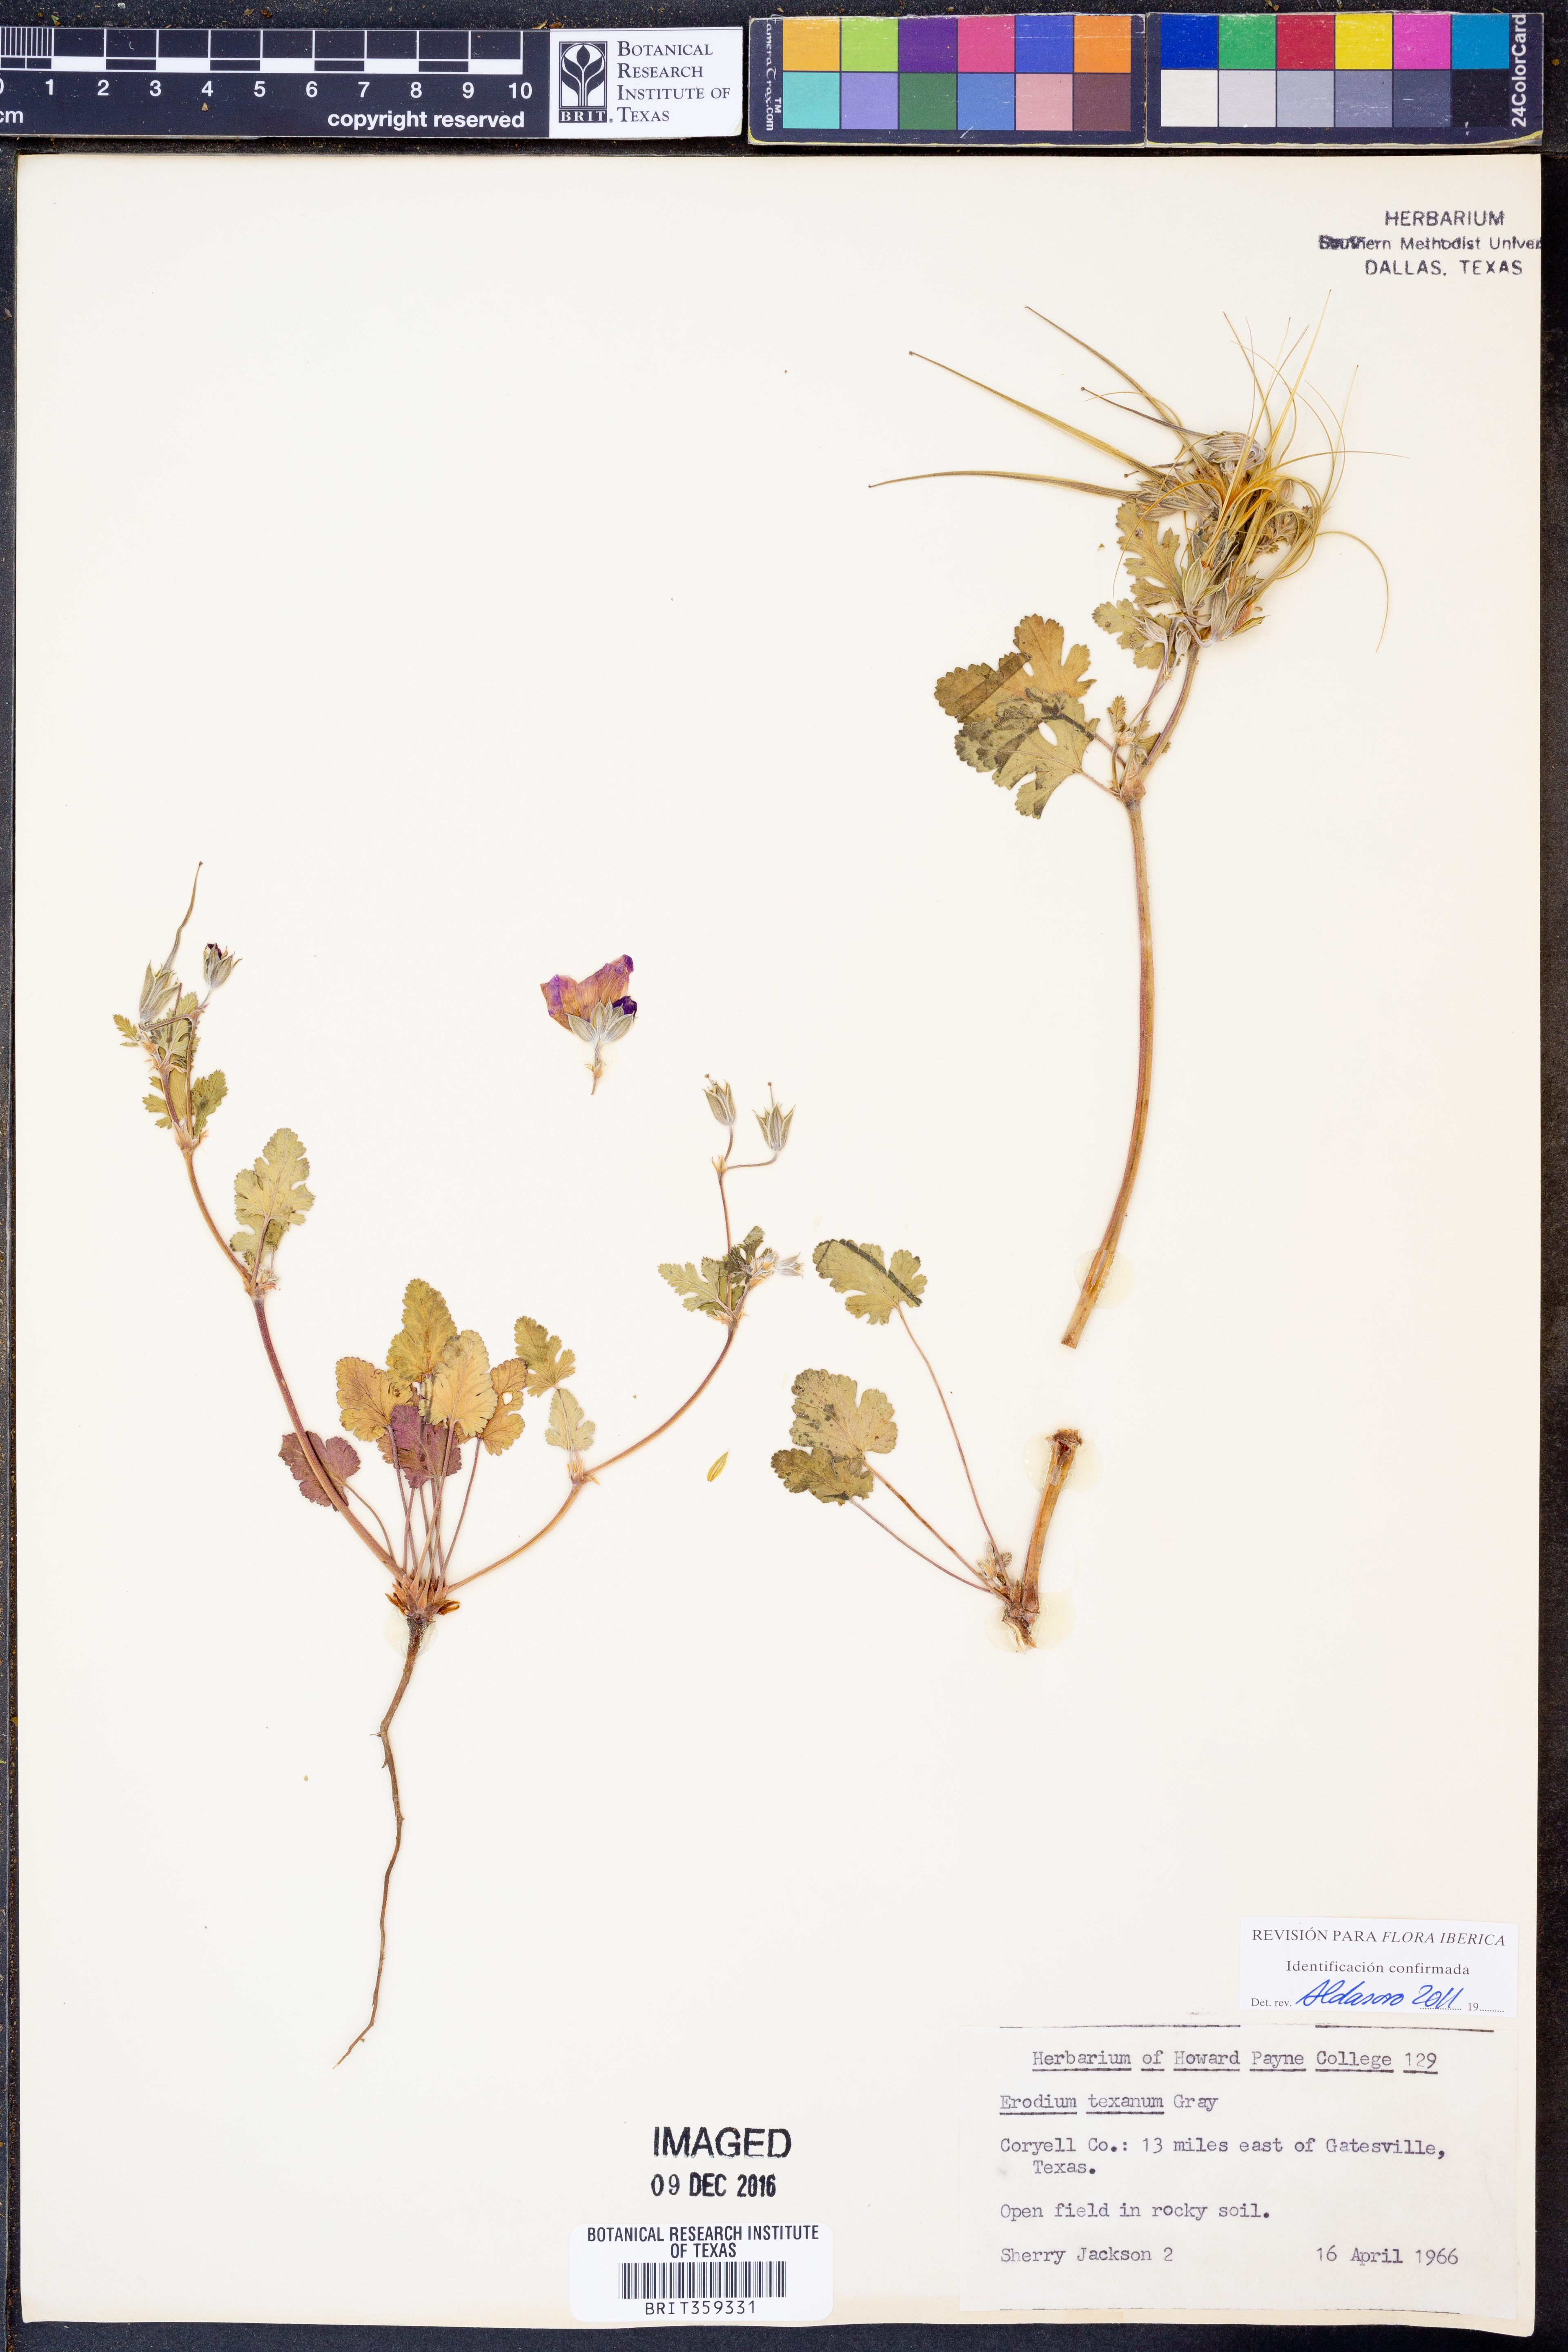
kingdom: Plantae
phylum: Tracheophyta
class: Magnoliopsida
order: Geraniales
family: Geraniaceae
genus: Erodium
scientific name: Erodium texanum
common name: Texas stork's-bill
